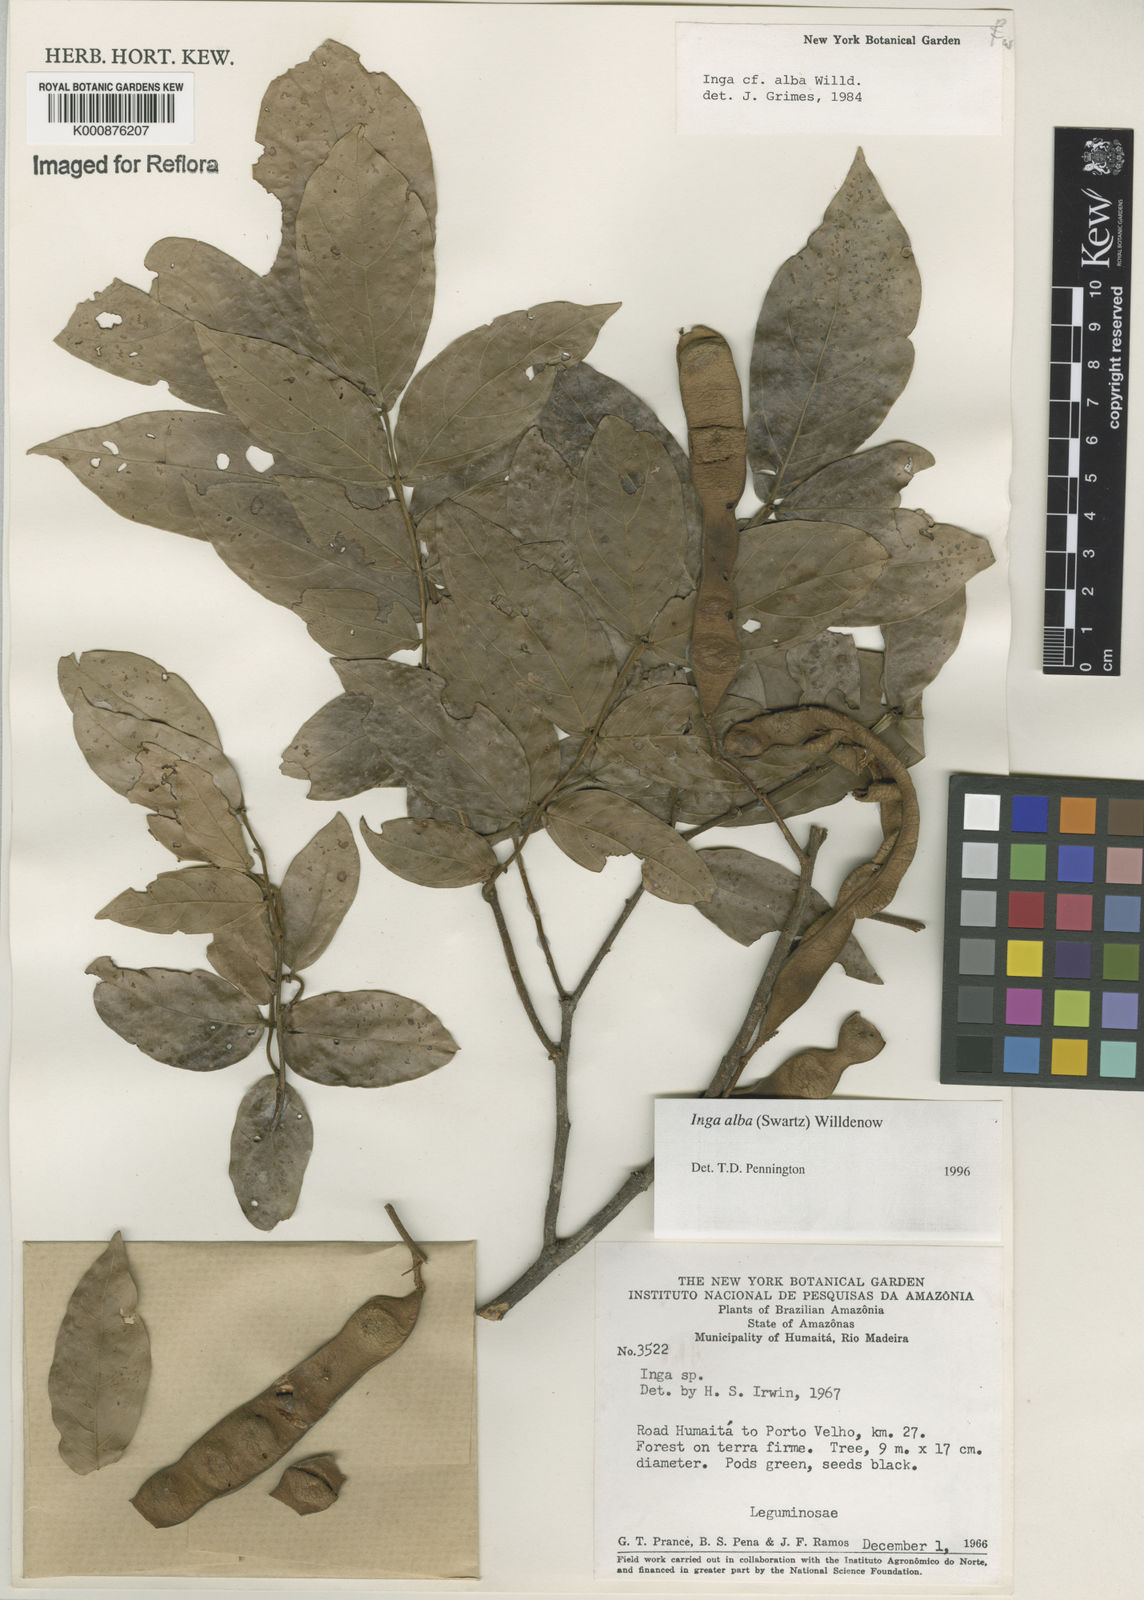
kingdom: Plantae
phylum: Tracheophyta
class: Magnoliopsida
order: Fabales
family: Fabaceae
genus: Inga
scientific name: Inga alba
